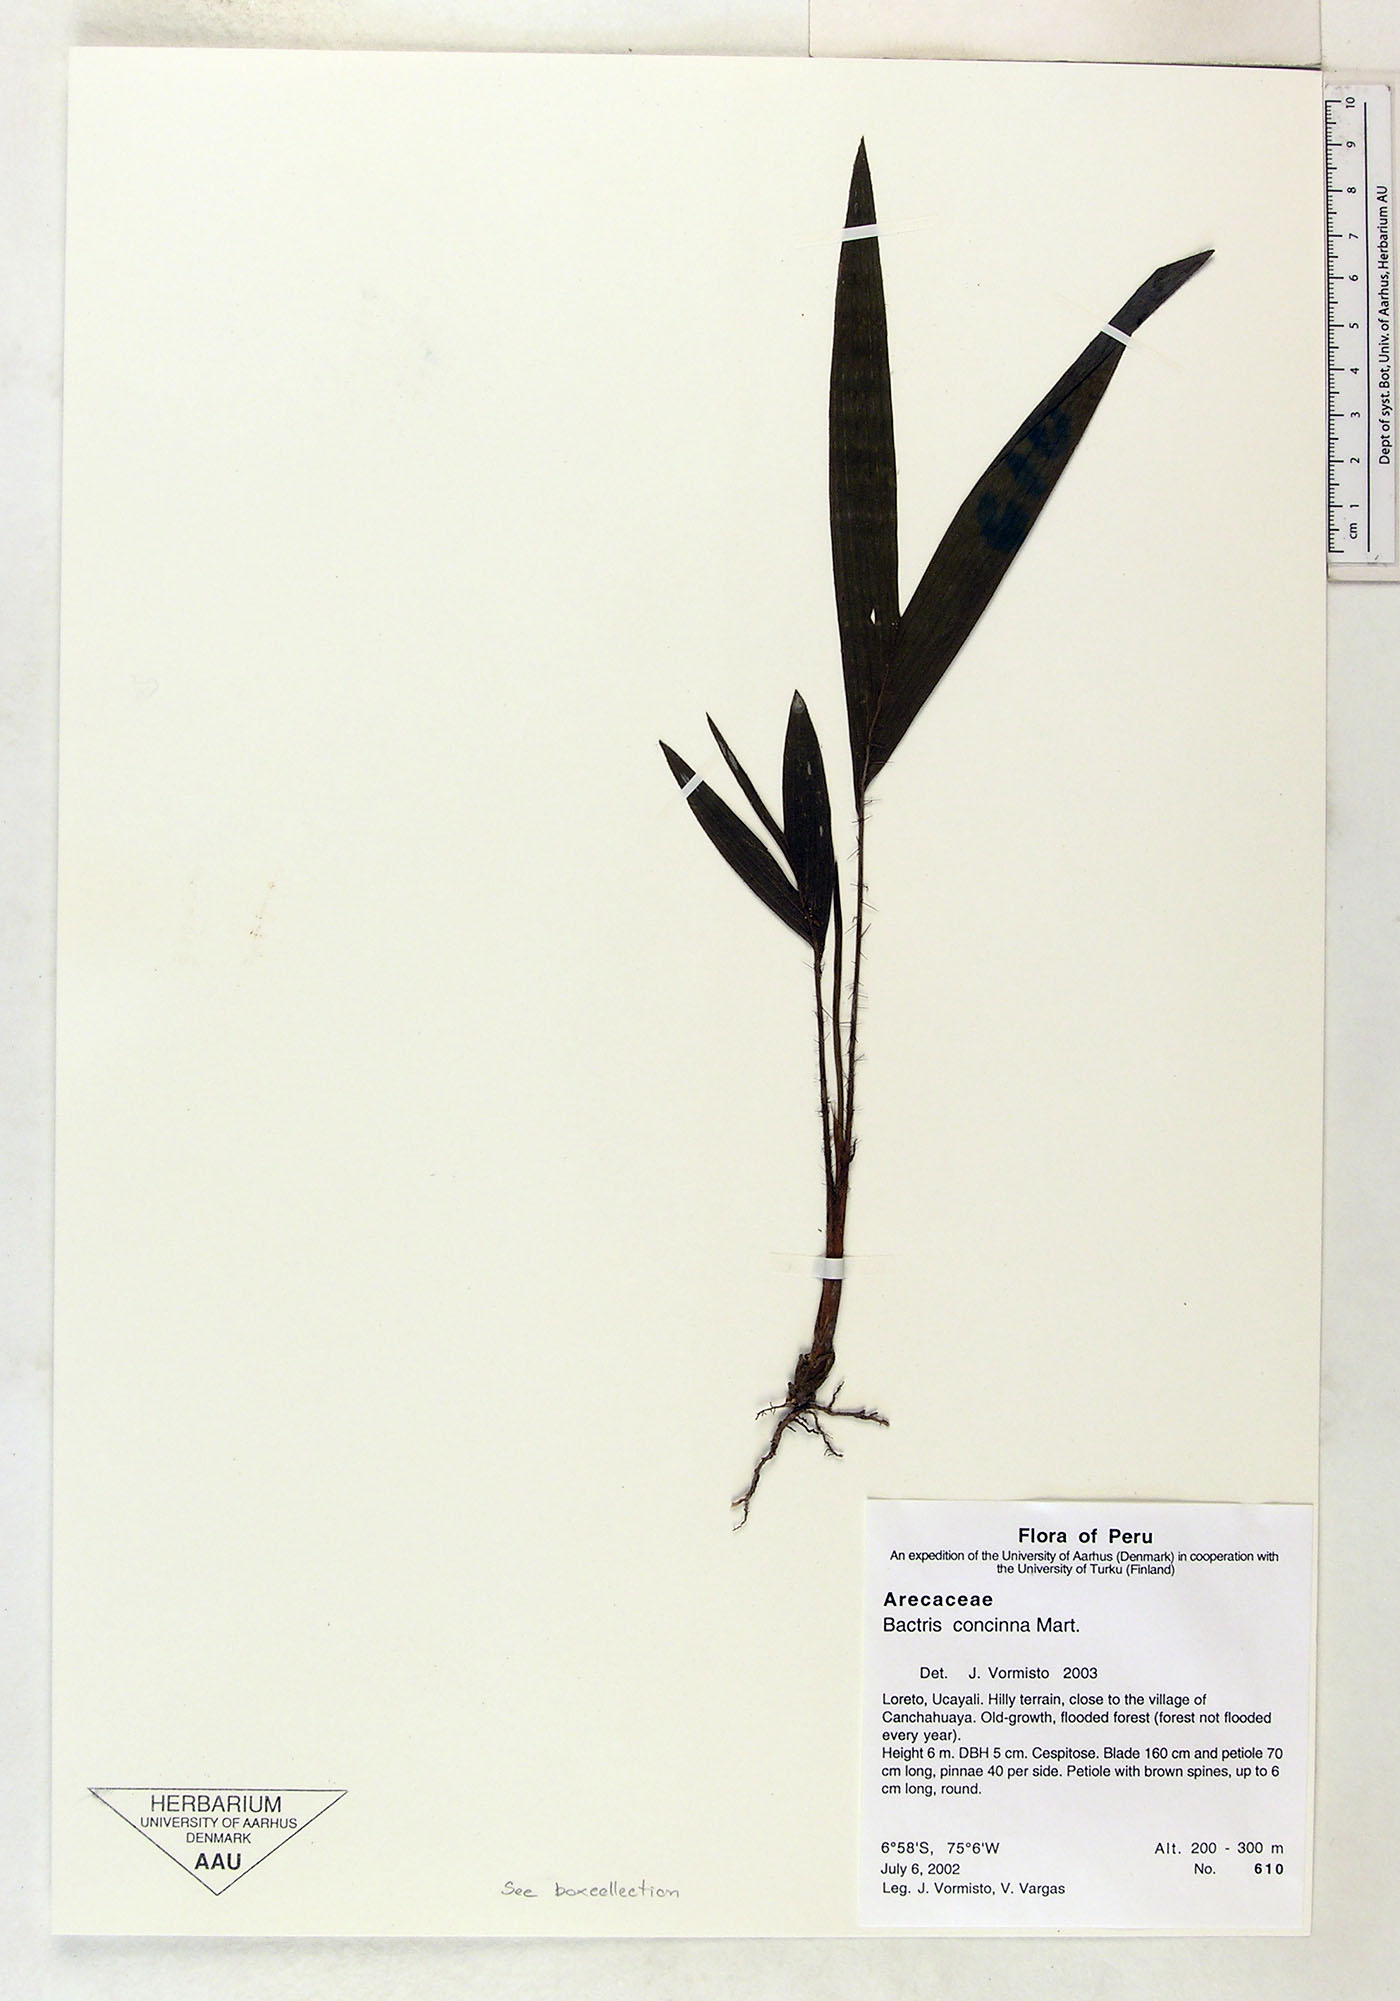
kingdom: Plantae
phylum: Tracheophyta
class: Liliopsida
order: Arecales
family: Arecaceae
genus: Bactris
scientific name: Bactris concinna
